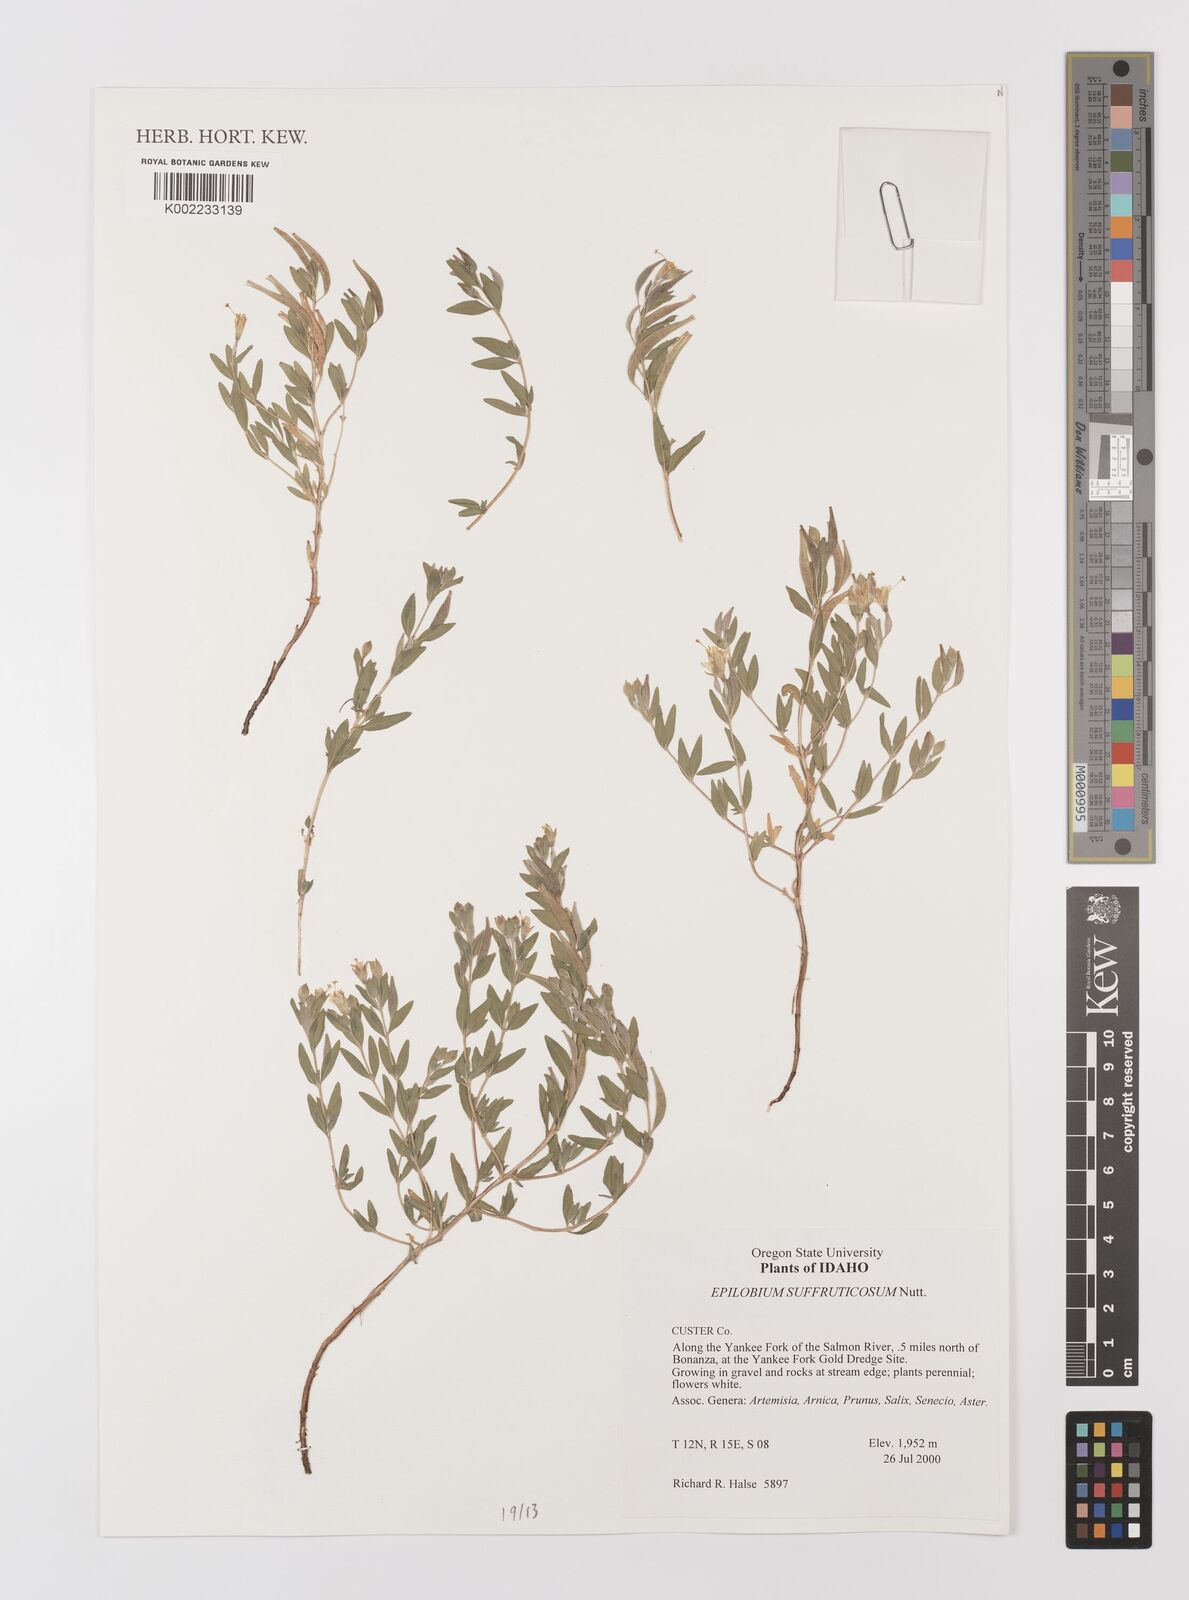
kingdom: Plantae
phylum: Tracheophyta
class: Magnoliopsida
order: Myrtales
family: Onagraceae
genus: Epilobium
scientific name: Epilobium suffruticosum
